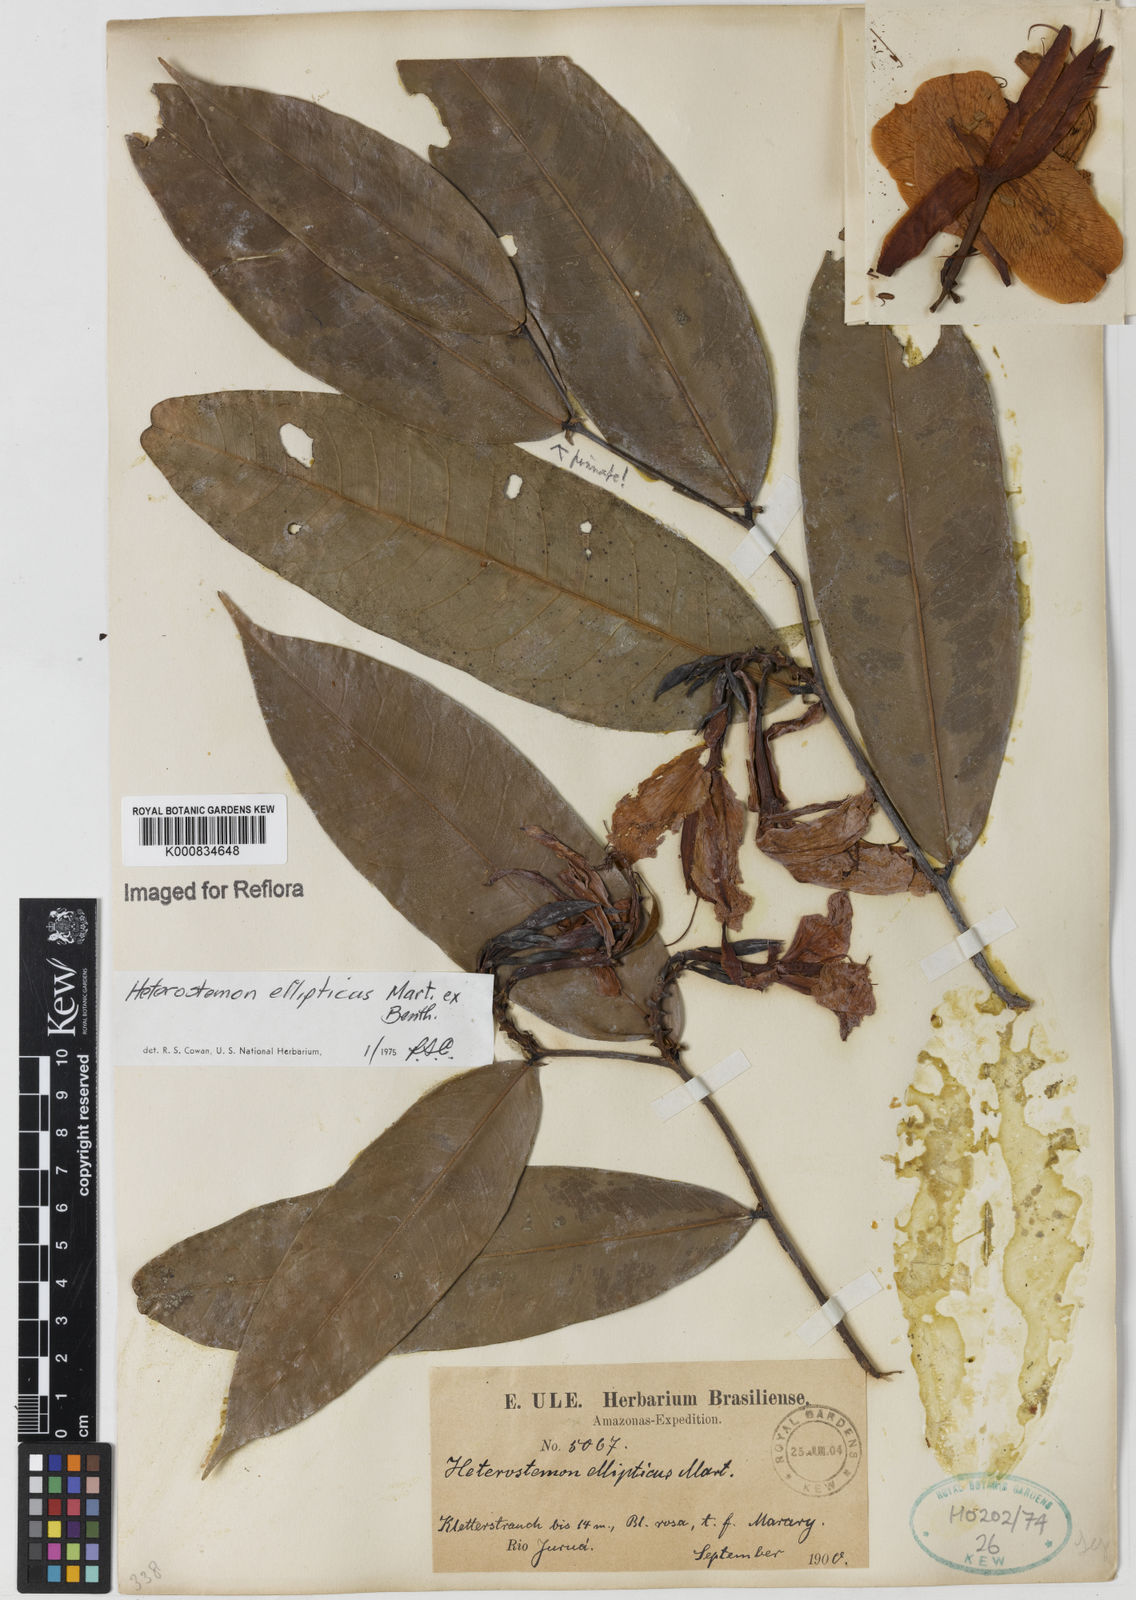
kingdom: Plantae
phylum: Tracheophyta
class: Magnoliopsida
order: Fabales
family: Fabaceae
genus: Heterostemon
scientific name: Heterostemon ellipticus
